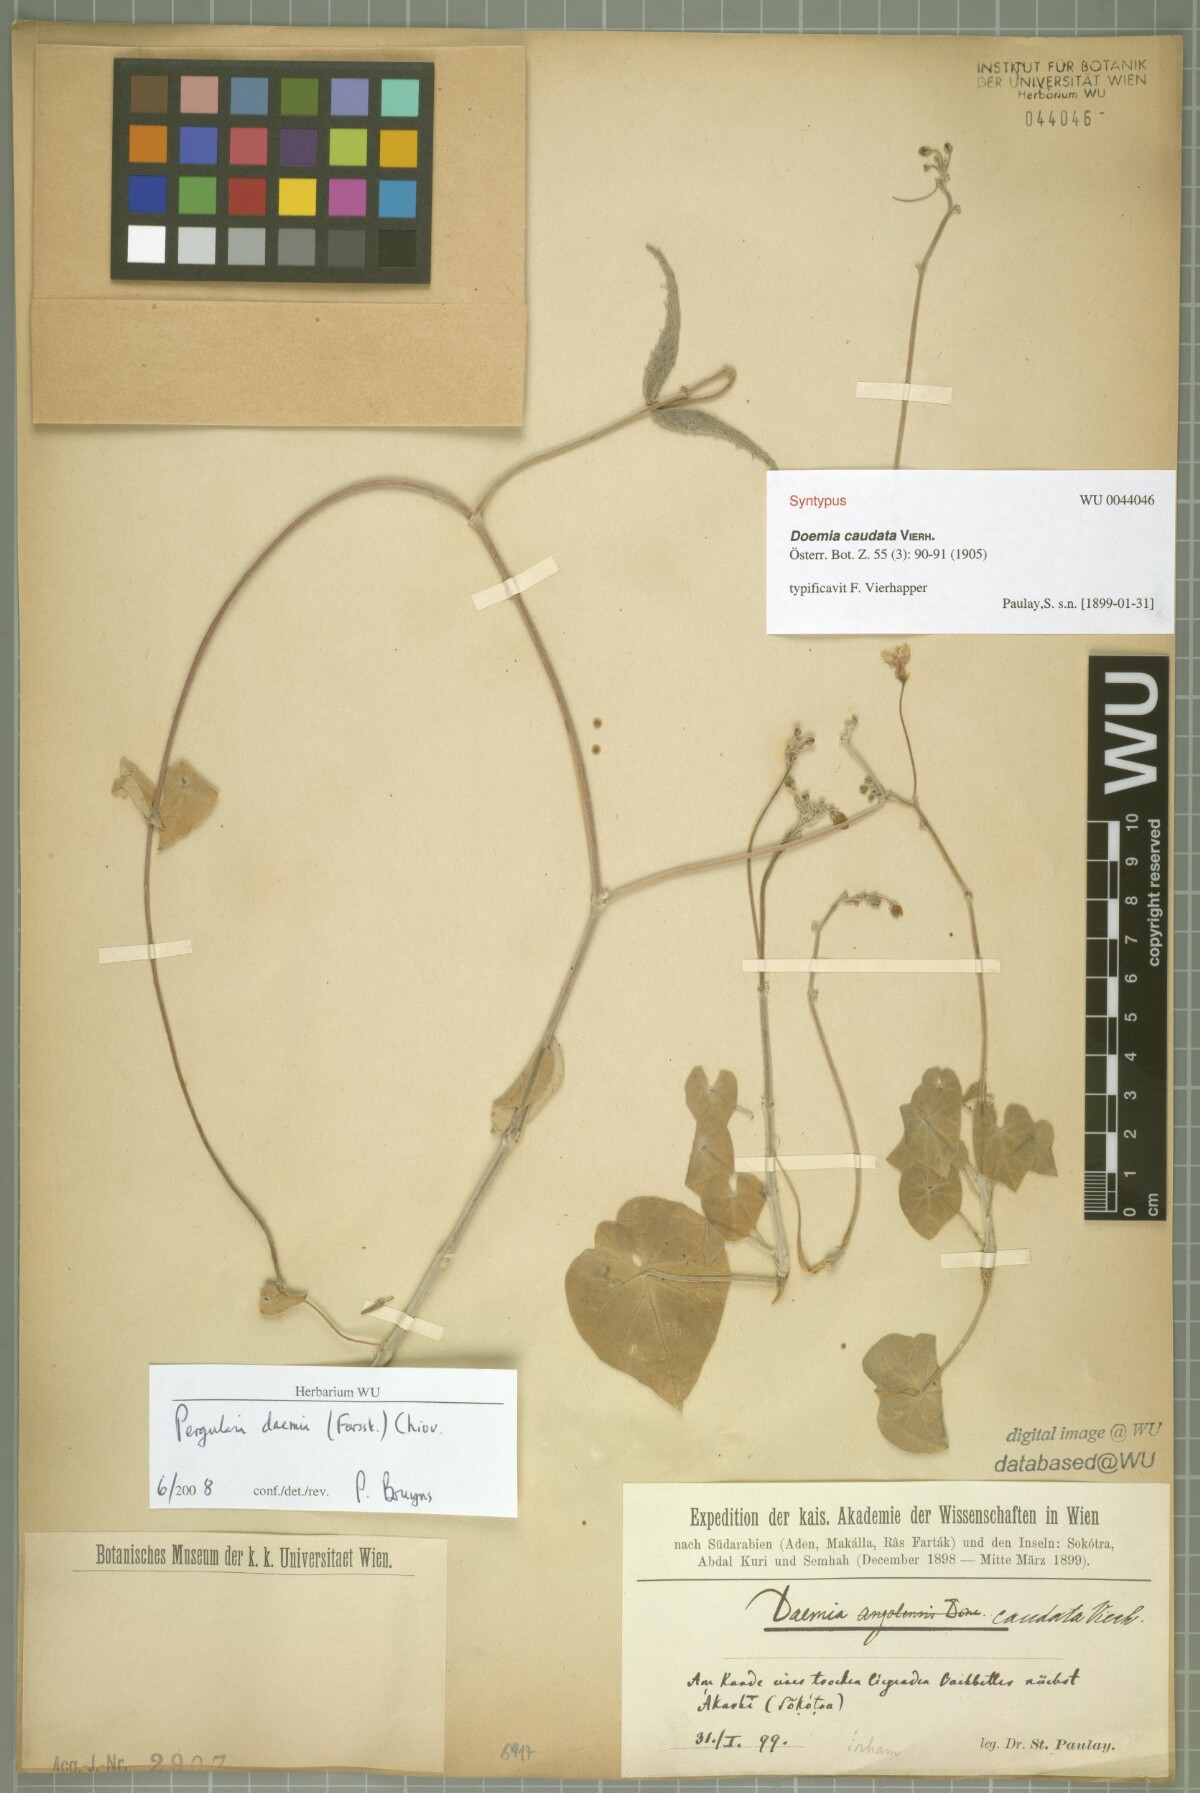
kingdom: Plantae
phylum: Tracheophyta
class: Magnoliopsida
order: Gentianales
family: Apocynaceae
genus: Pergularia
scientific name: Pergularia tomentosa
